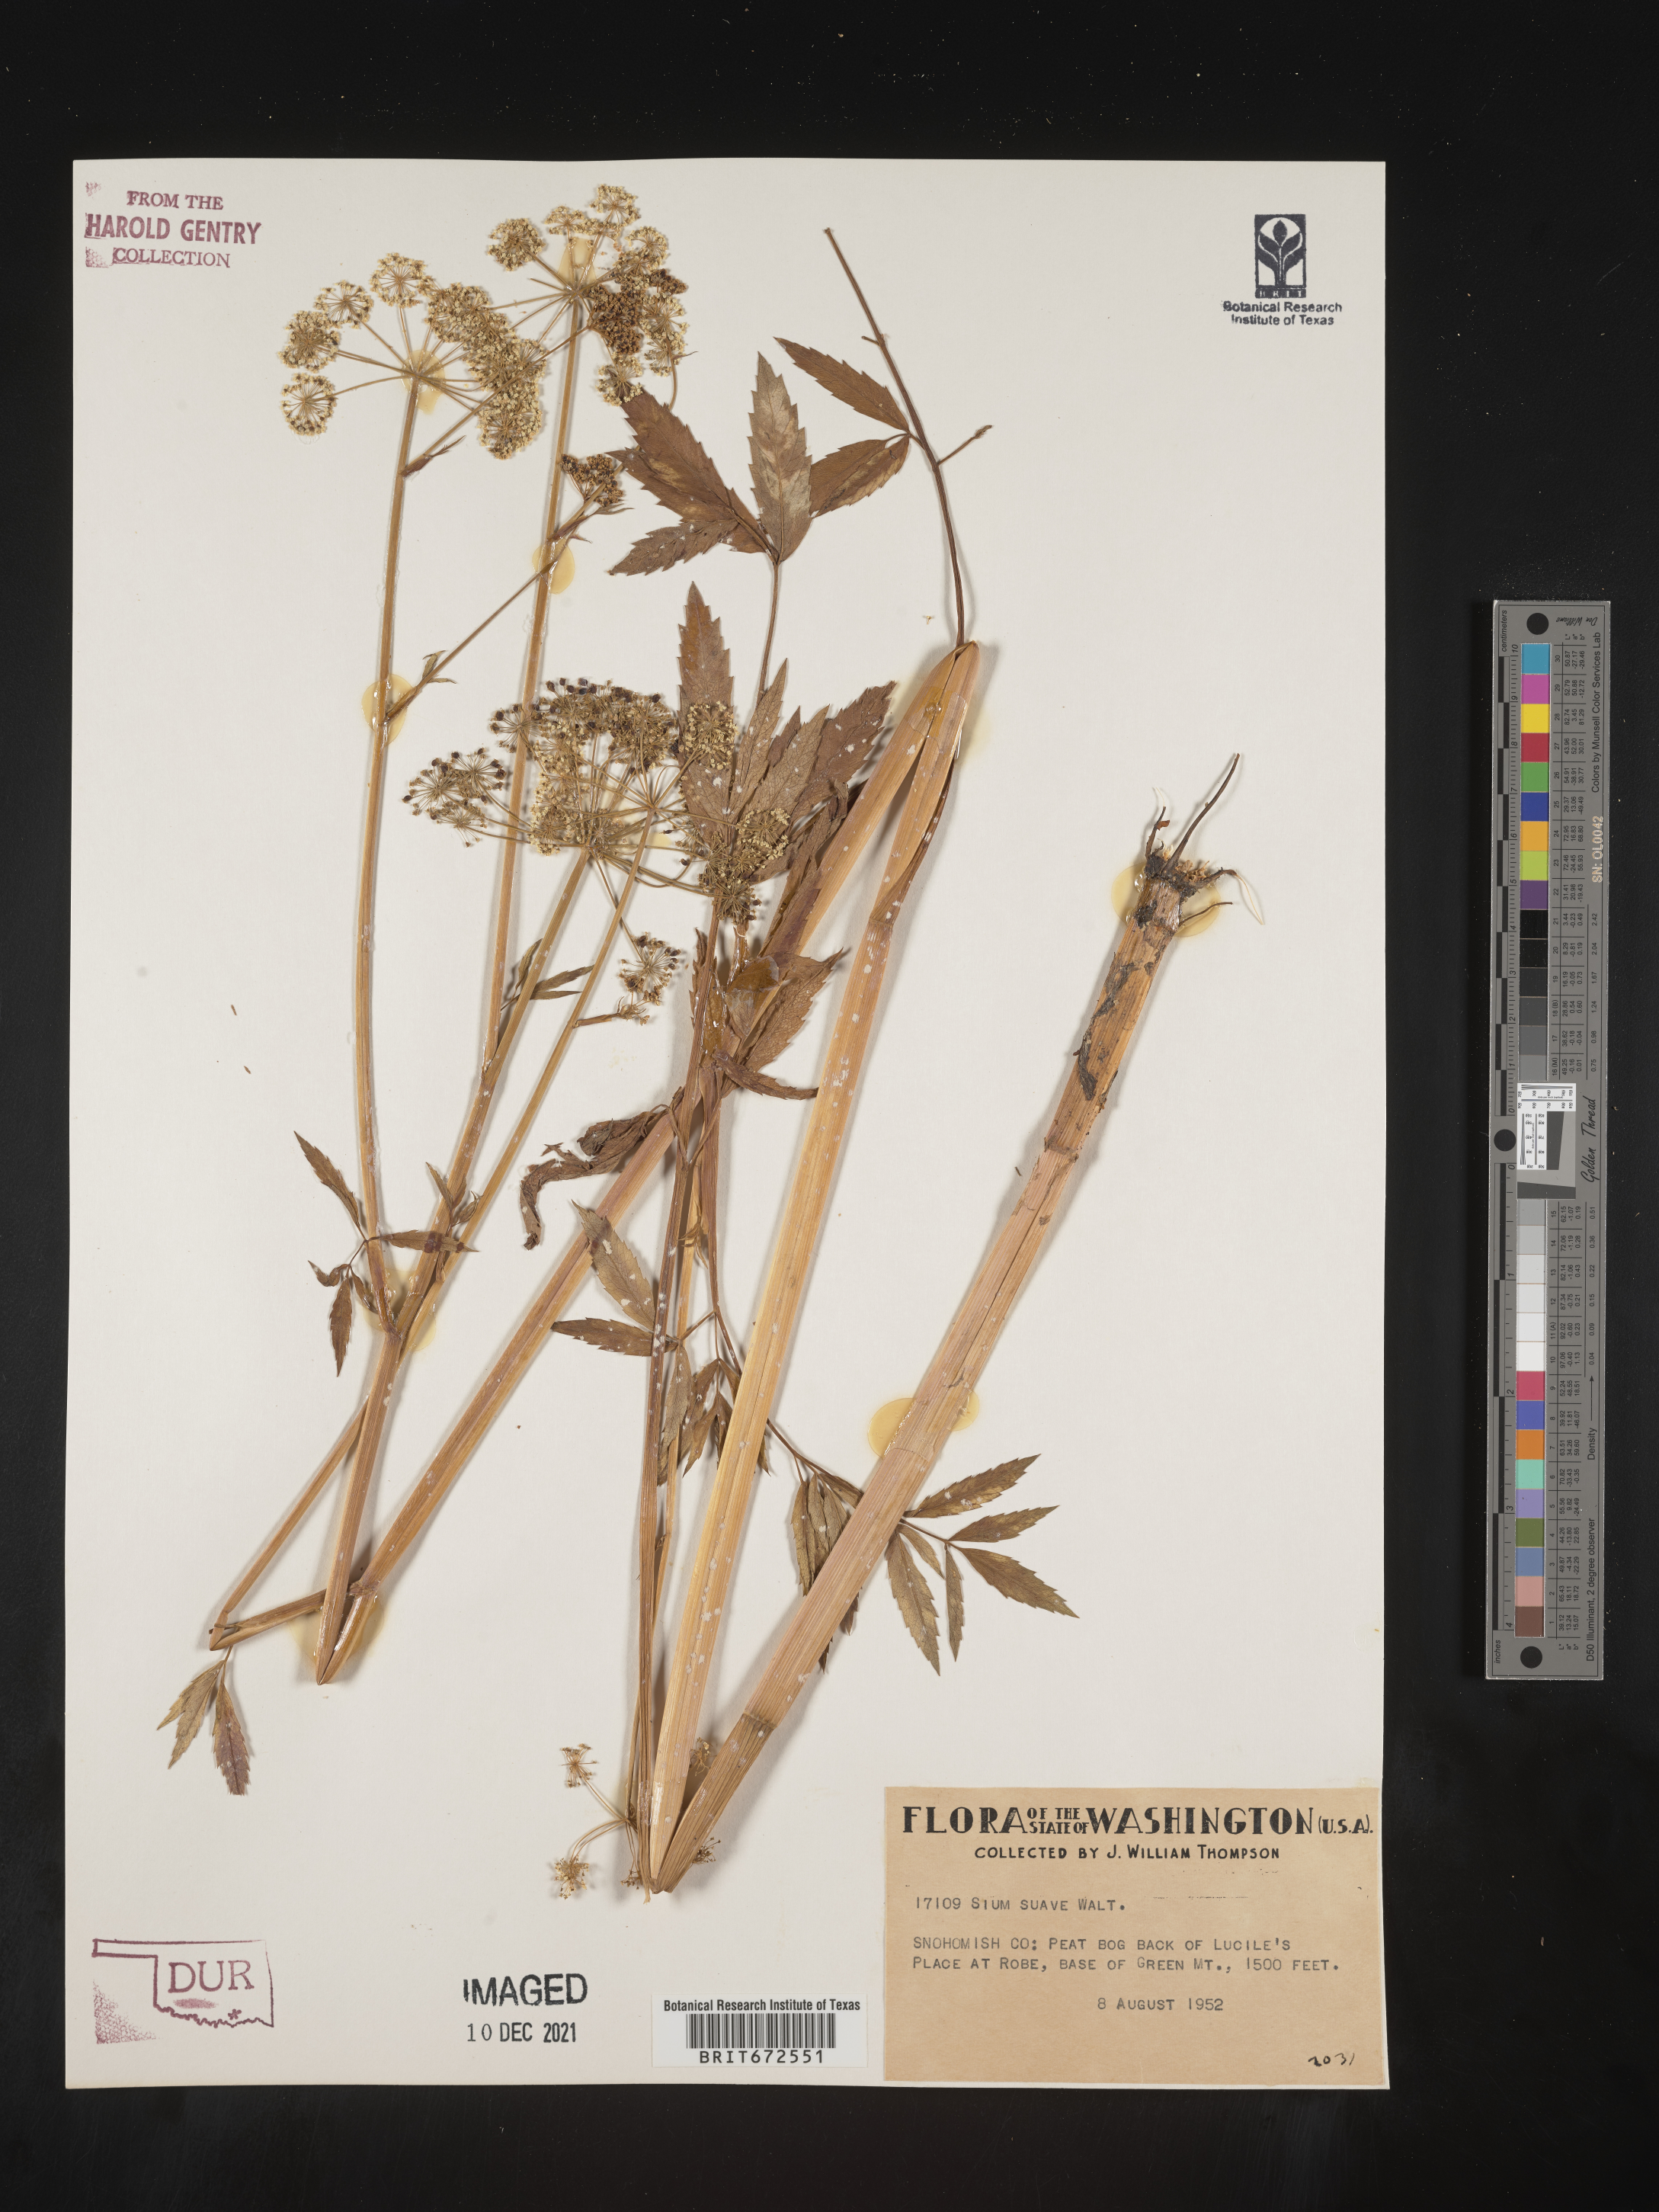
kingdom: Plantae
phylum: Tracheophyta
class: Magnoliopsida
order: Apiales
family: Apiaceae
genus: Sium
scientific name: Sium suave
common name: Hemlock water-parsnip
